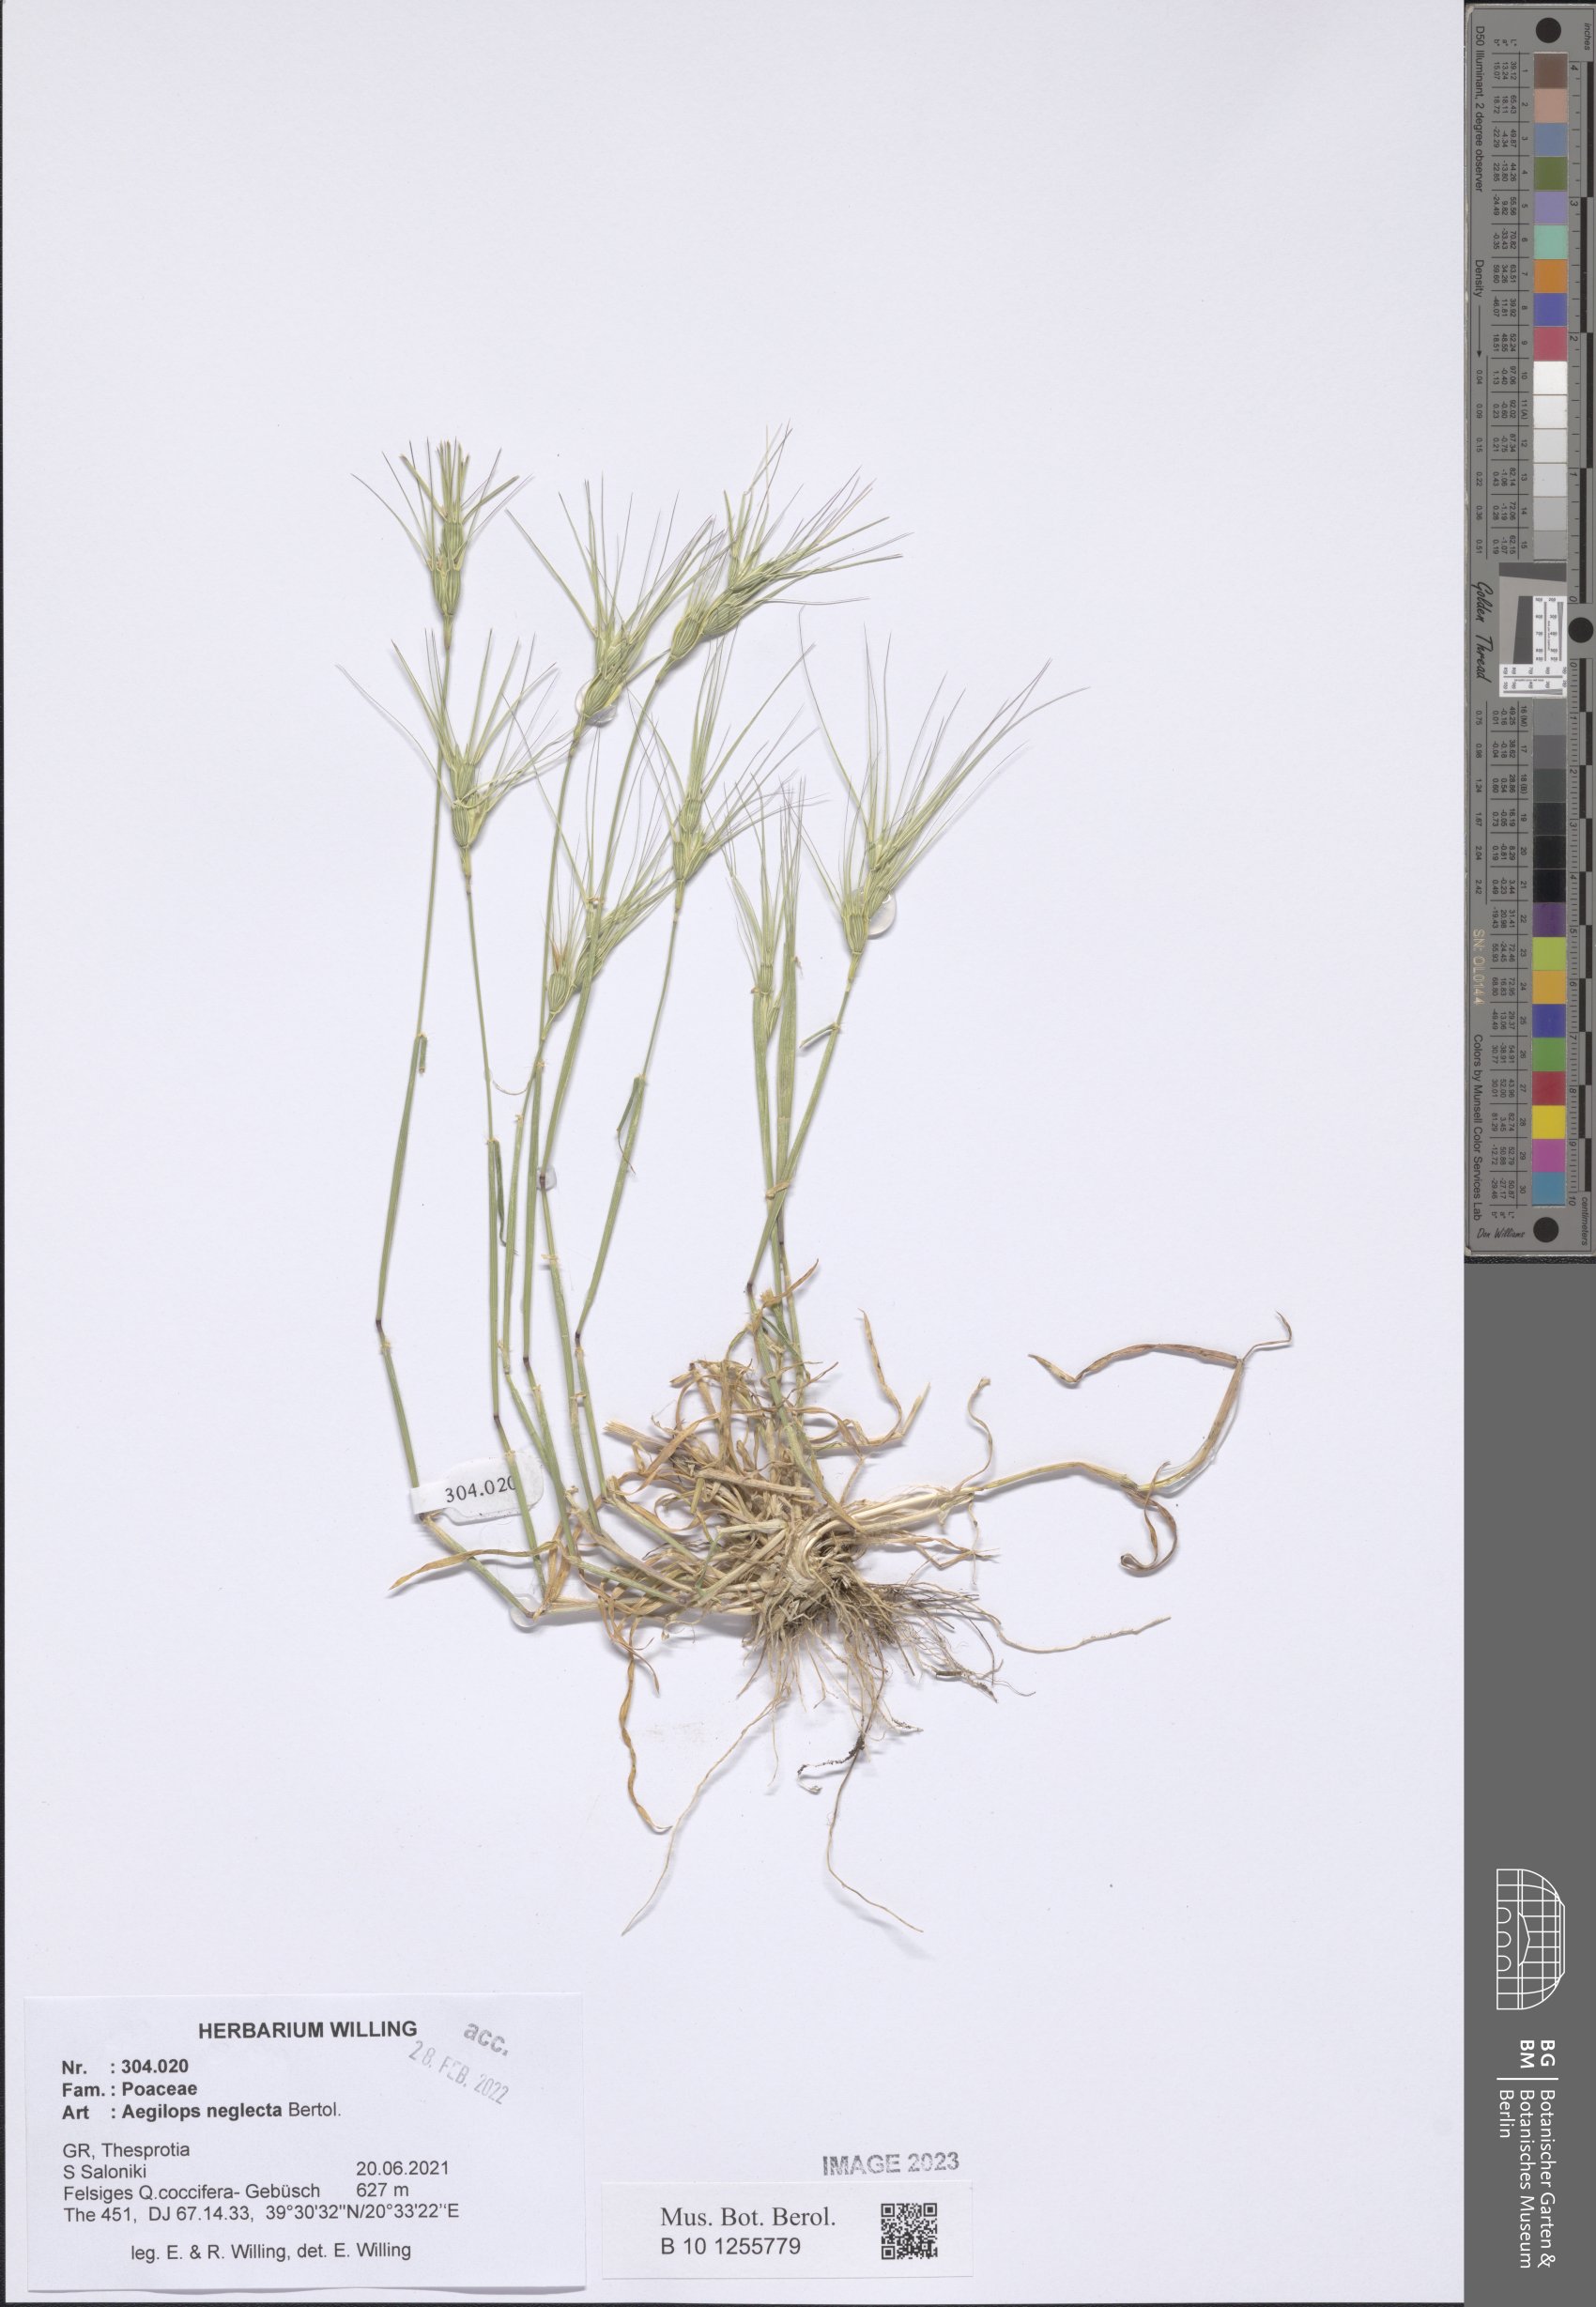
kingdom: Plantae
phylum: Tracheophyta
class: Liliopsida
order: Poales
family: Poaceae
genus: Aegilops
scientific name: Aegilops neglecta
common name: Three-awn goat grass
